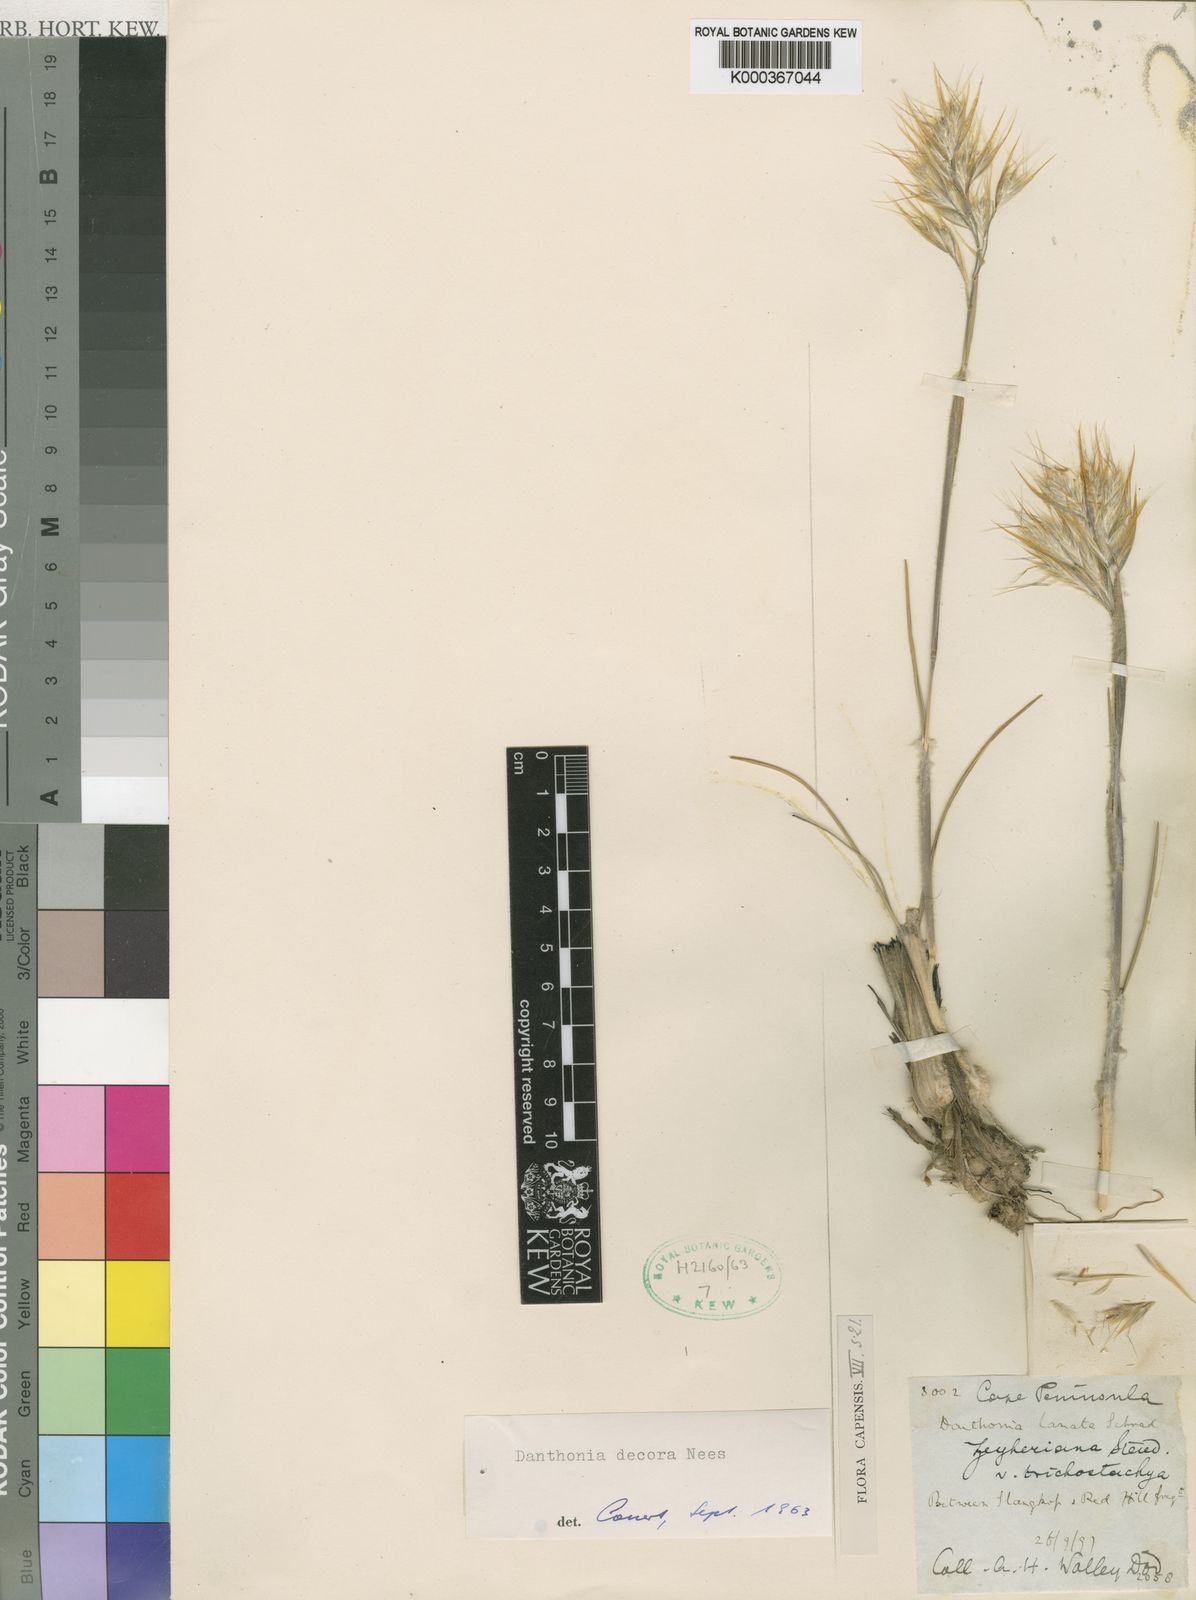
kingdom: Plantae
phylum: Tracheophyta
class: Liliopsida
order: Poales
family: Poaceae
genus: Rytidosperma
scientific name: Rytidosperma
